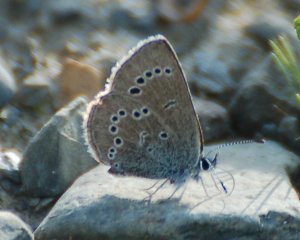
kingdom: Animalia
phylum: Arthropoda
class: Insecta
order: Lepidoptera
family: Lycaenidae
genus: Glaucopsyche
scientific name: Glaucopsyche lygdamus
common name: Silvery Blue
